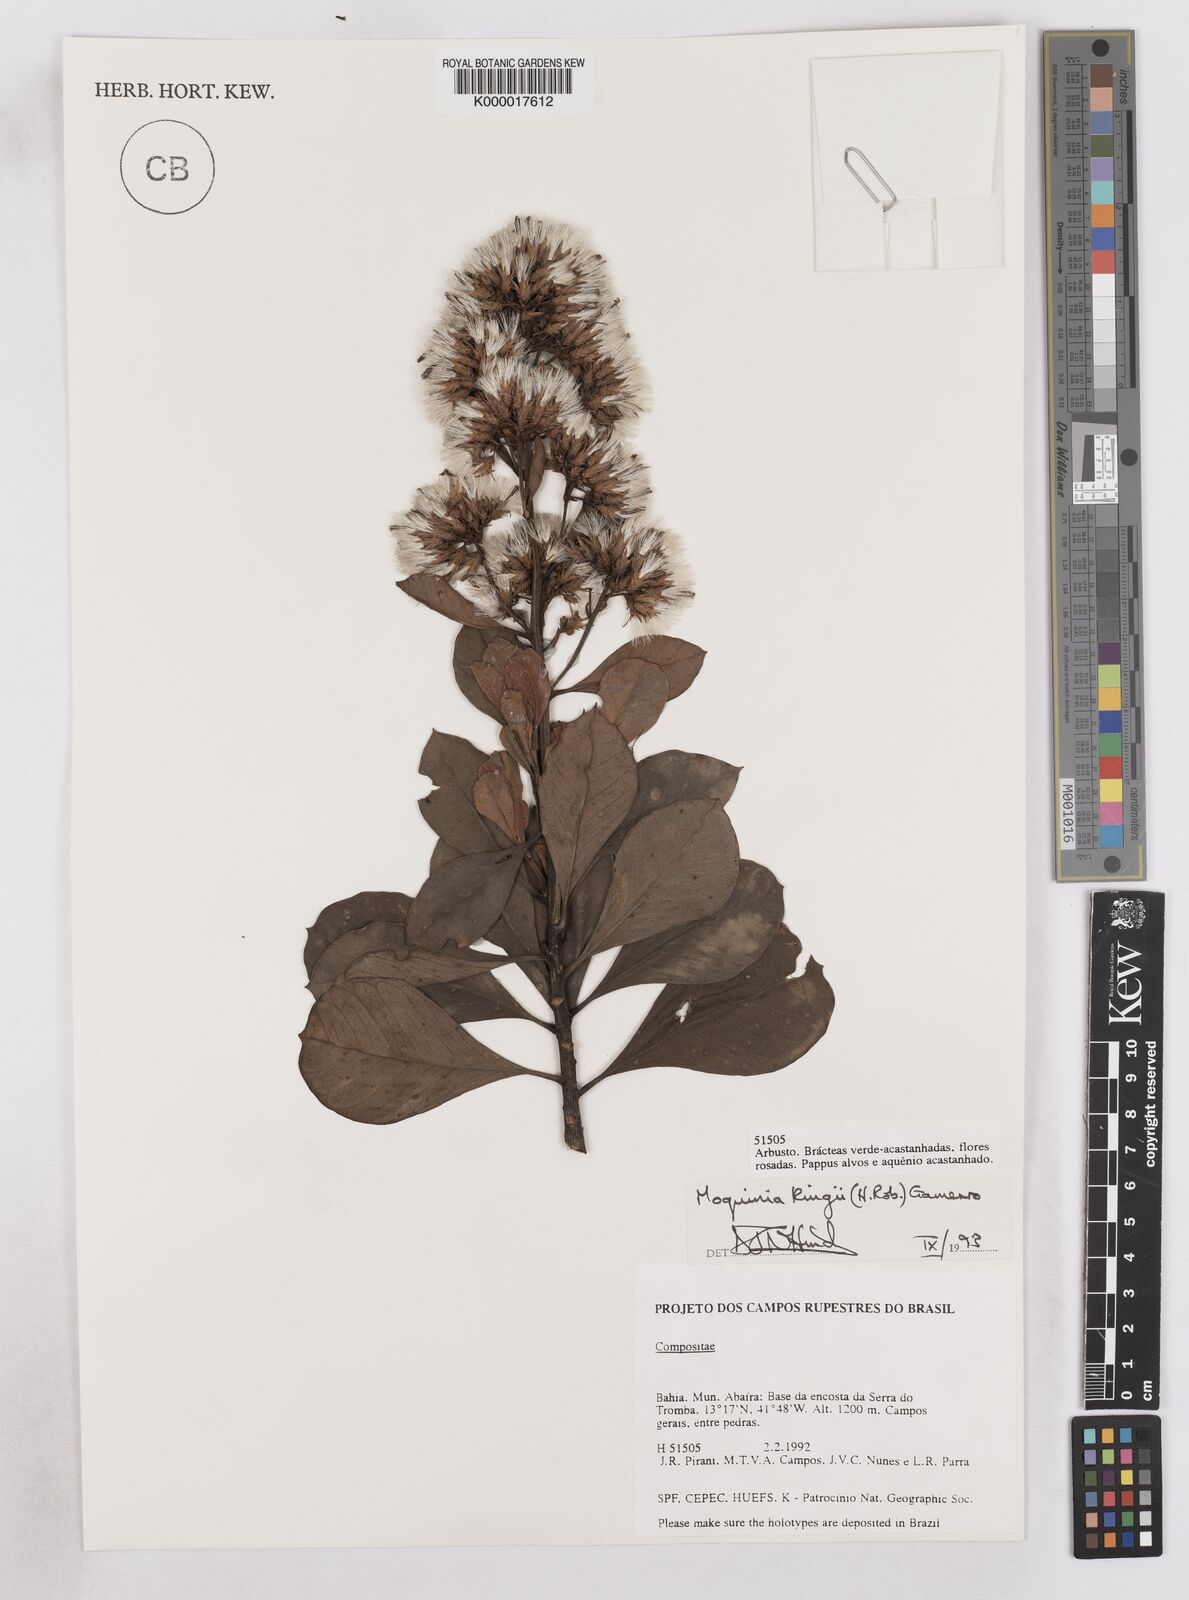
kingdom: Plantae
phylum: Tracheophyta
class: Magnoliopsida
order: Asterales
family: Asteraceae
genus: Pseudostifftia
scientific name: Pseudostifftia kingii
